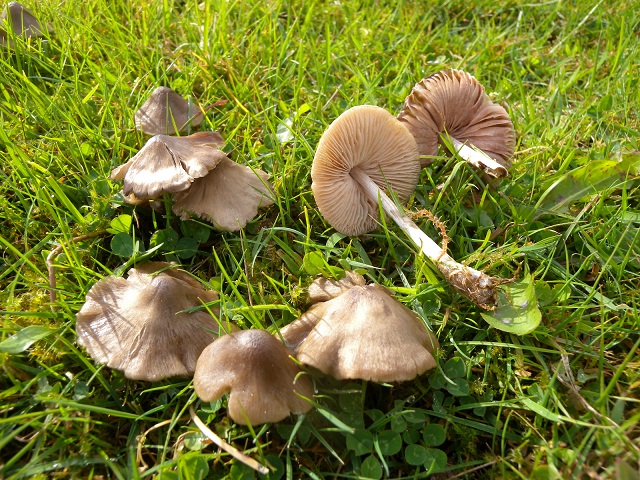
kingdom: Fungi
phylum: Basidiomycota
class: Agaricomycetes
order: Agaricales
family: Entolomataceae
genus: Entoloma
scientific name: Entoloma conferendum
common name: stjernesporet rødblad
